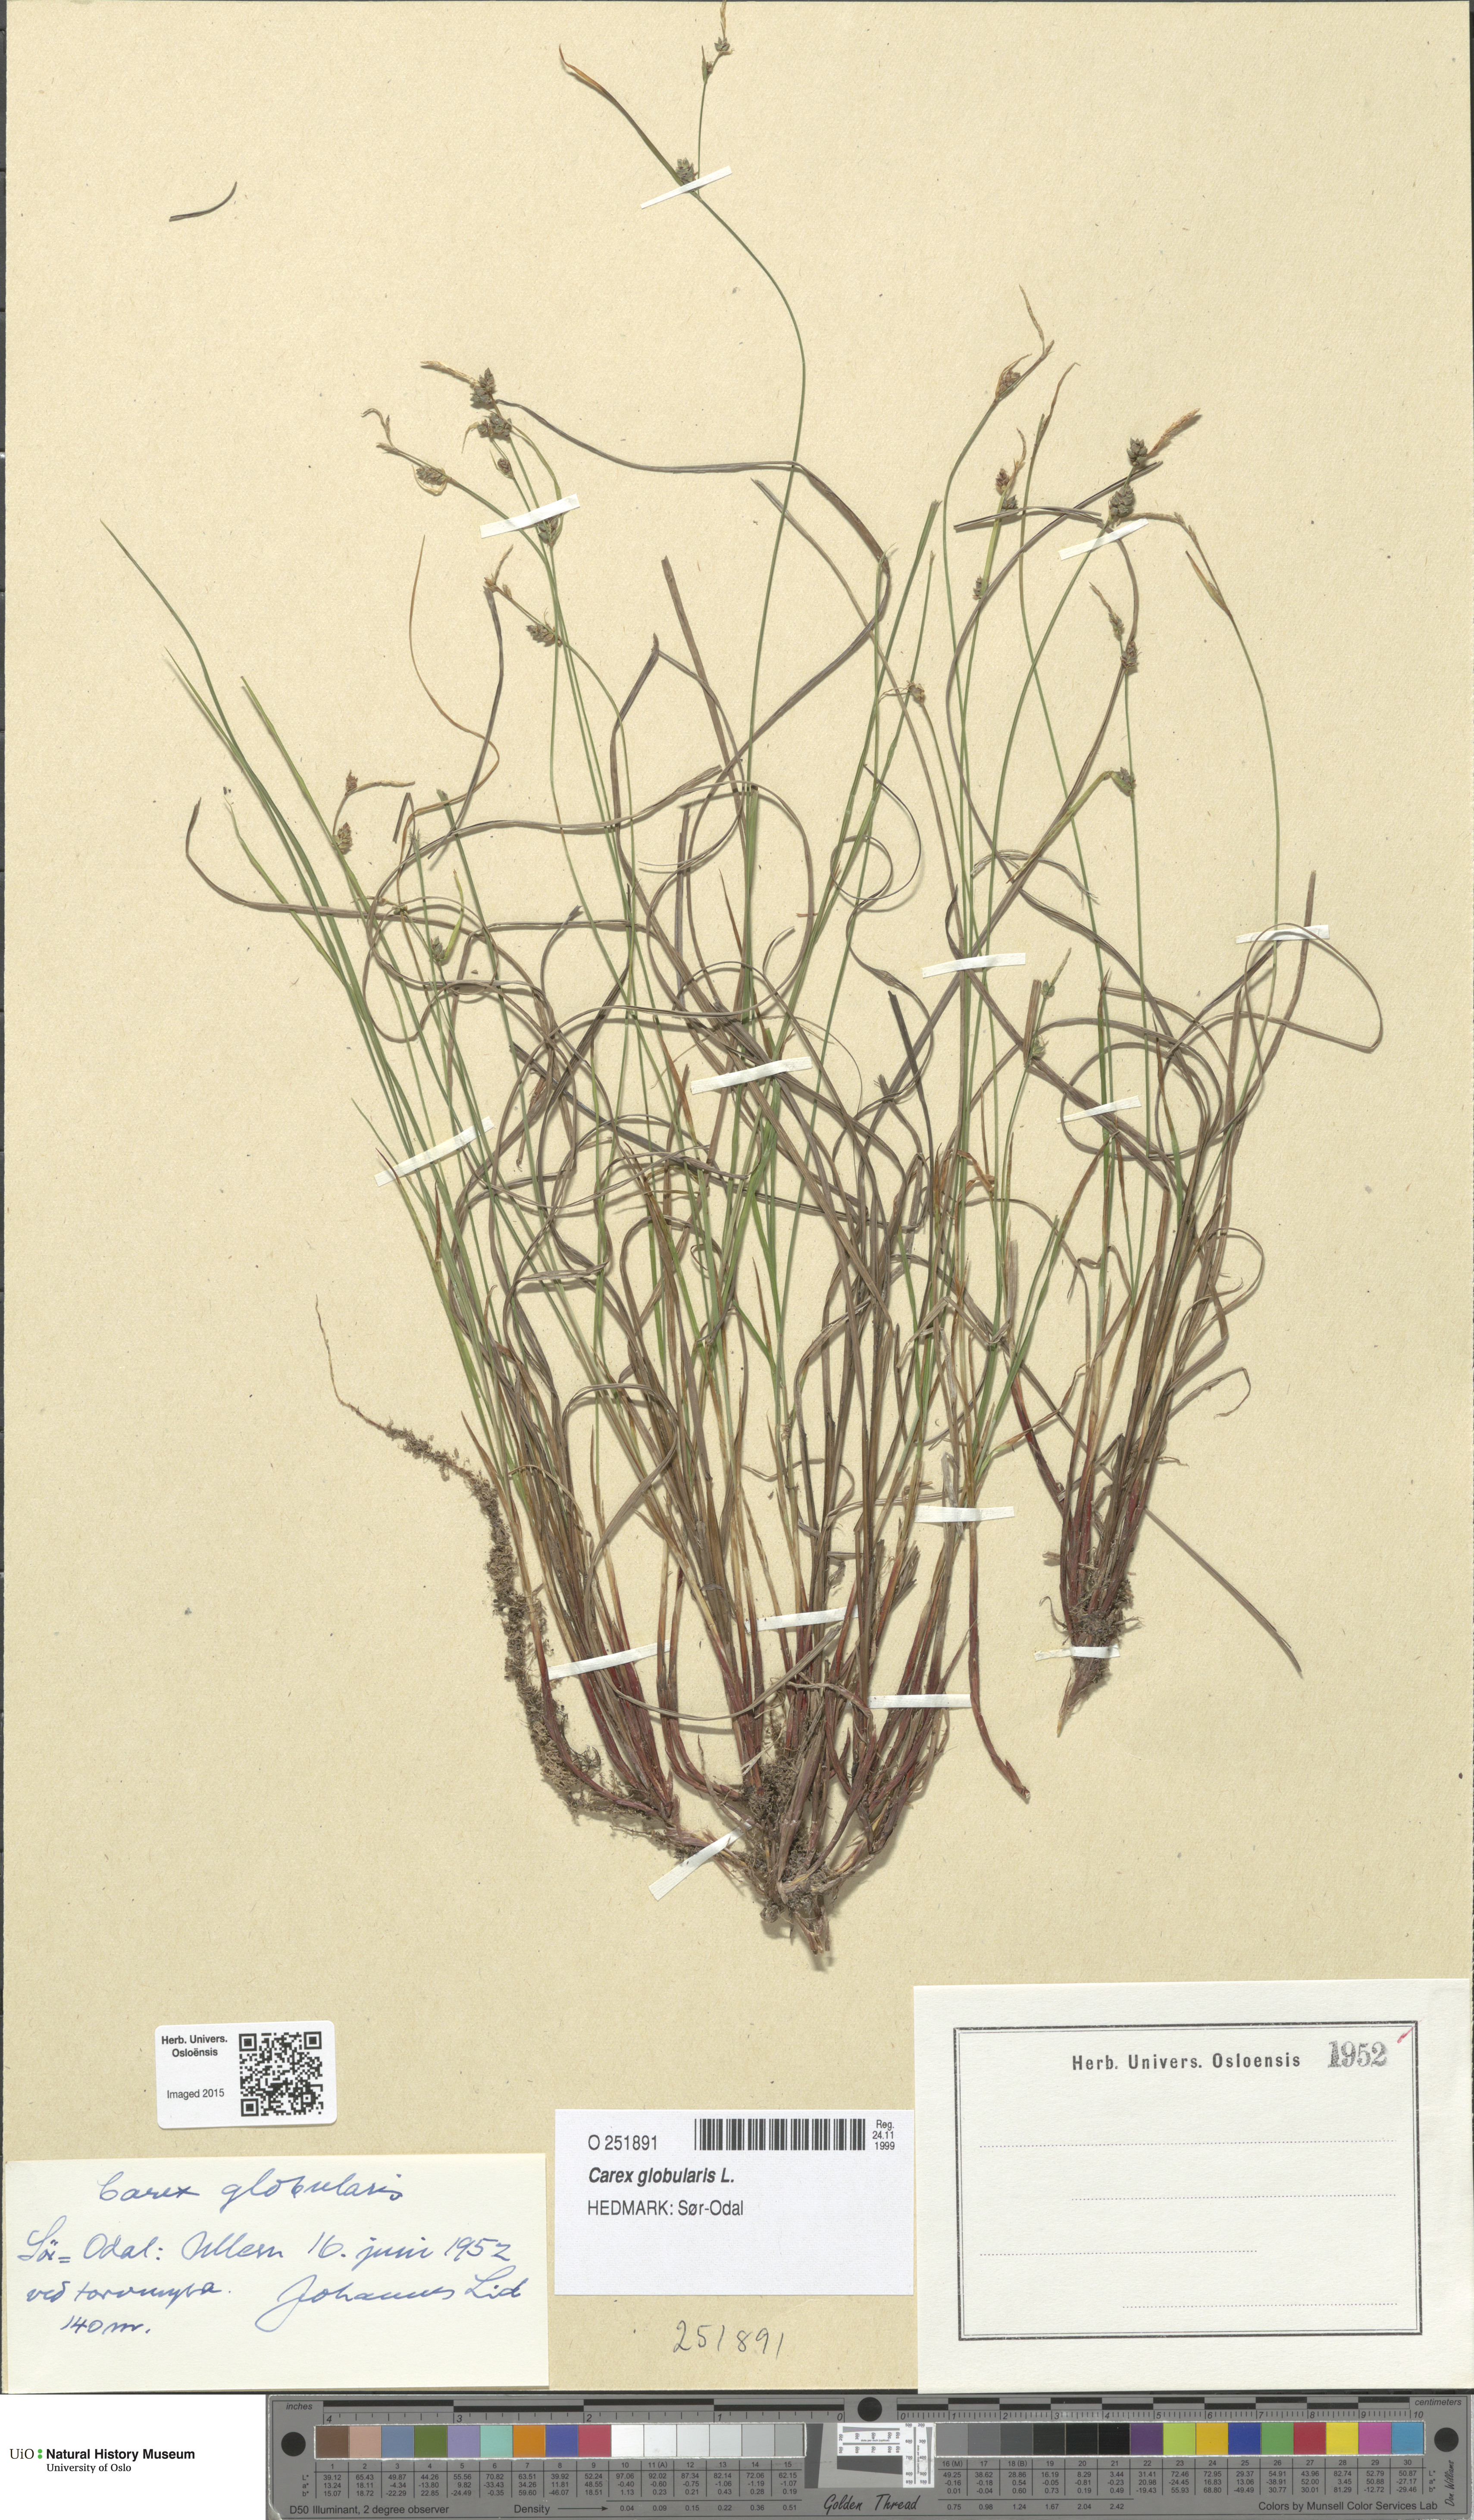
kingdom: Plantae
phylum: Tracheophyta
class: Liliopsida
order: Poales
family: Cyperaceae
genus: Carex
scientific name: Carex globularis
